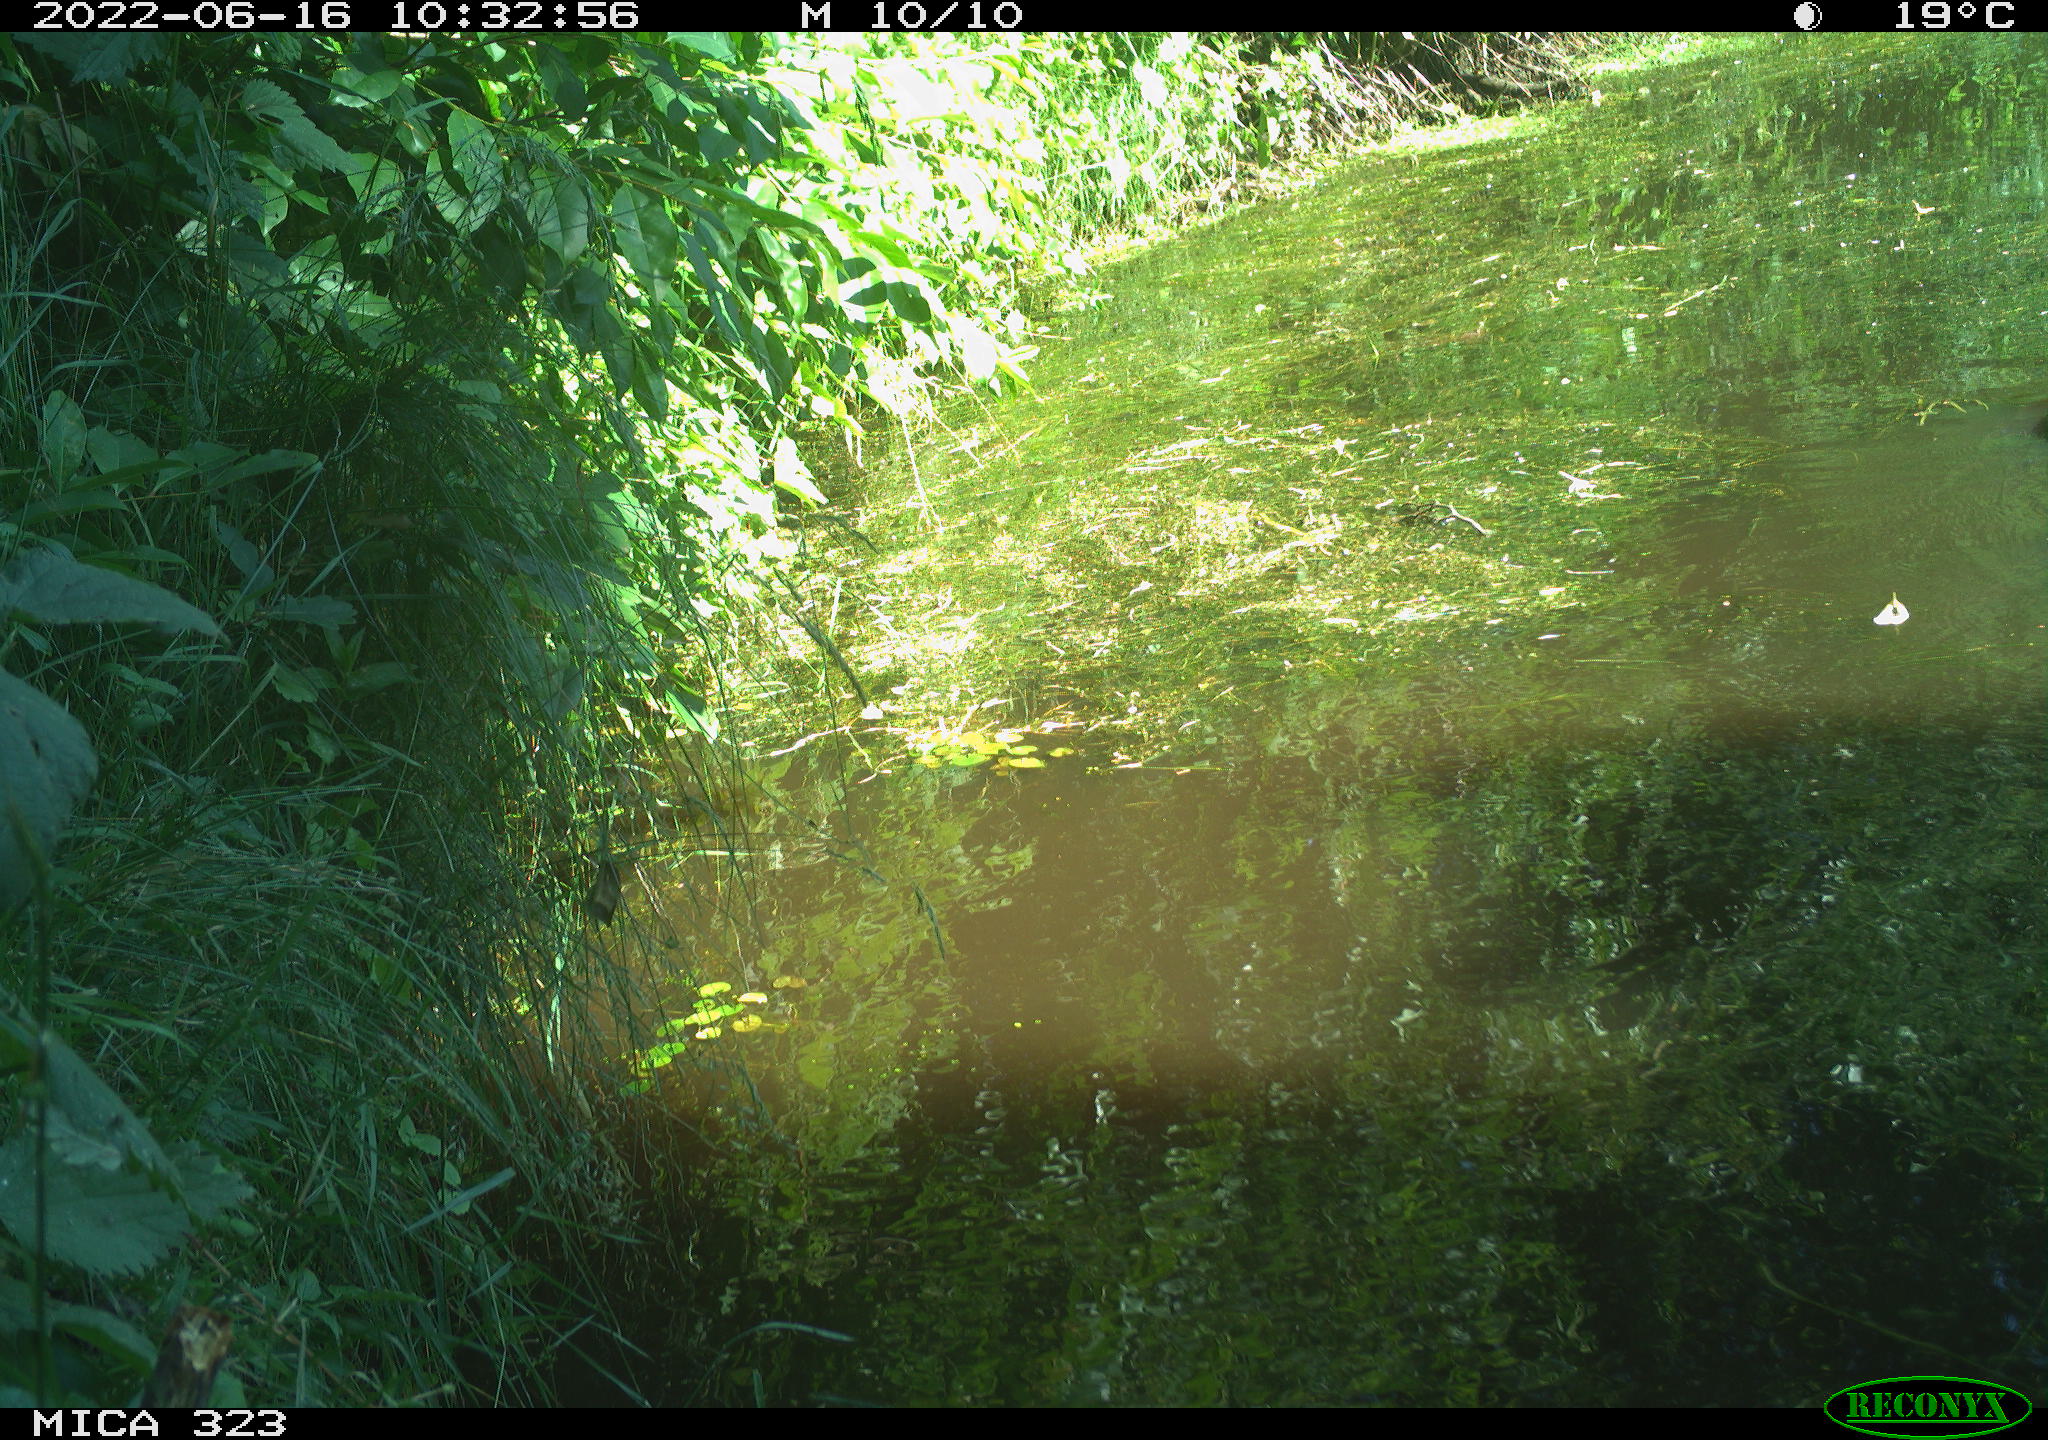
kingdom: Animalia
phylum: Chordata
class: Aves
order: Anseriformes
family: Anatidae
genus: Anas
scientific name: Anas platyrhynchos
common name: Mallard
